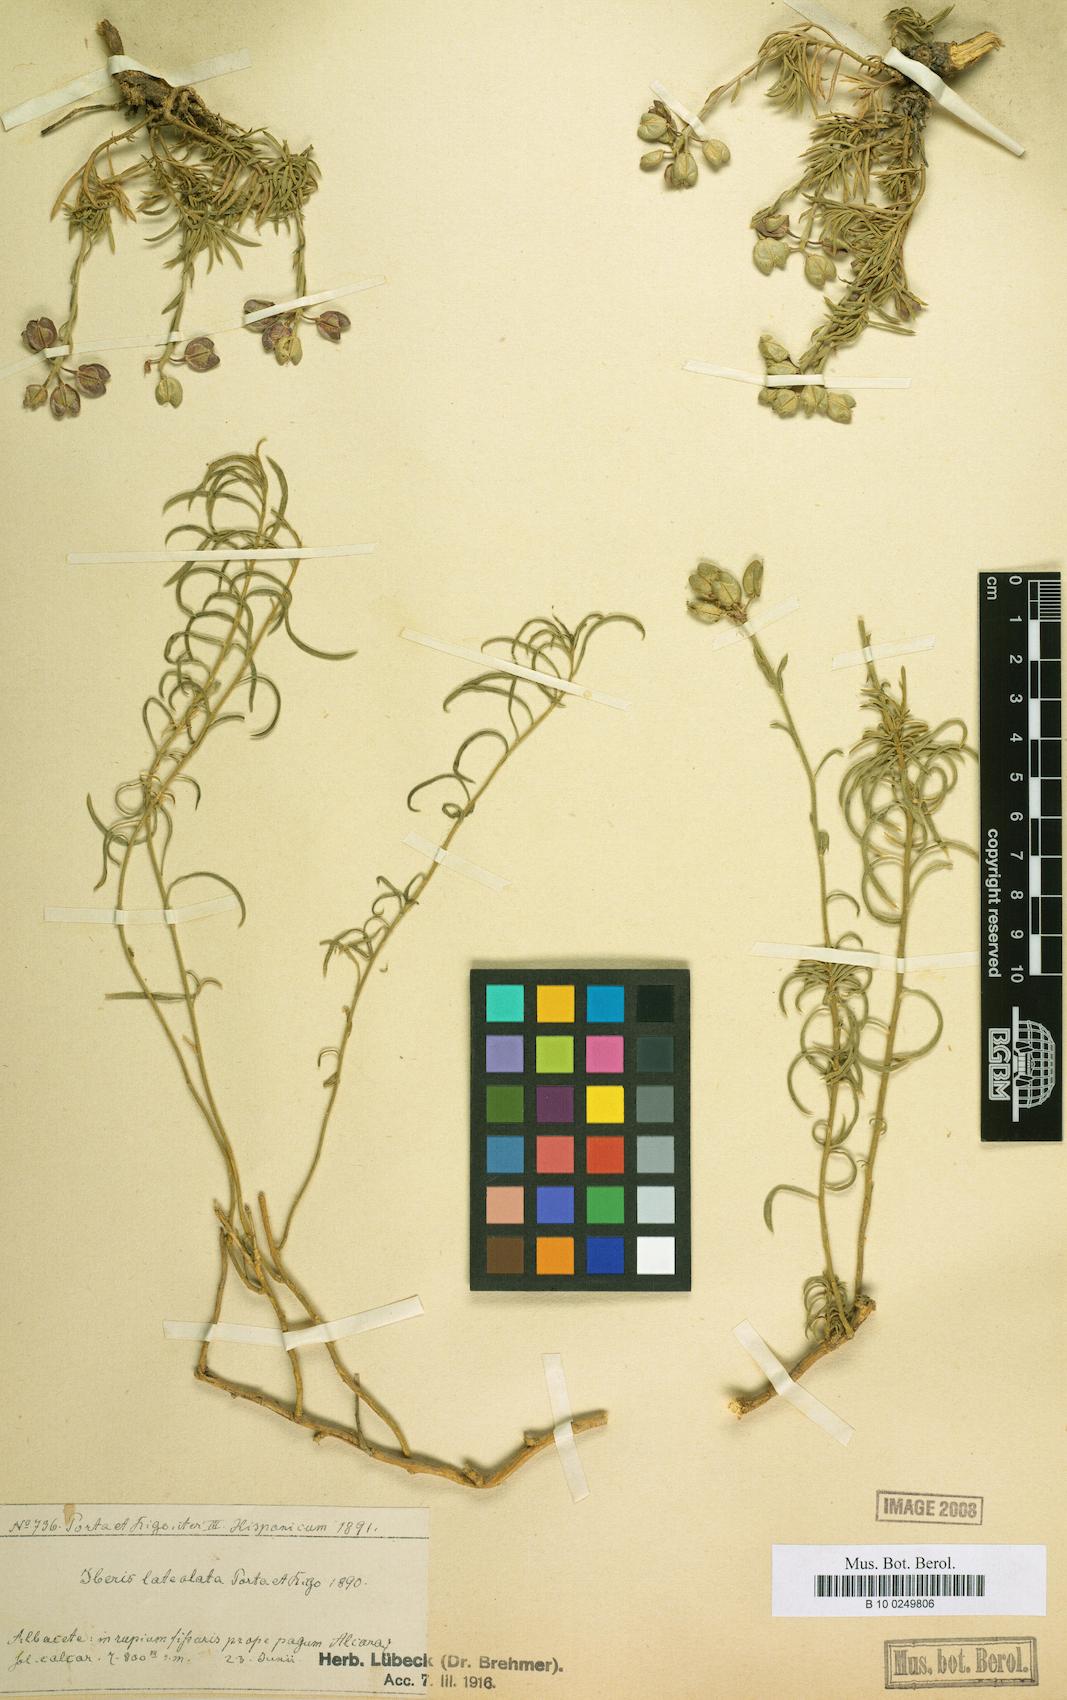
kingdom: Plantae
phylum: Tracheophyta
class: Magnoliopsida
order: Brassicales
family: Brassicaceae
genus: Iberis
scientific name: Iberis saxatilis
